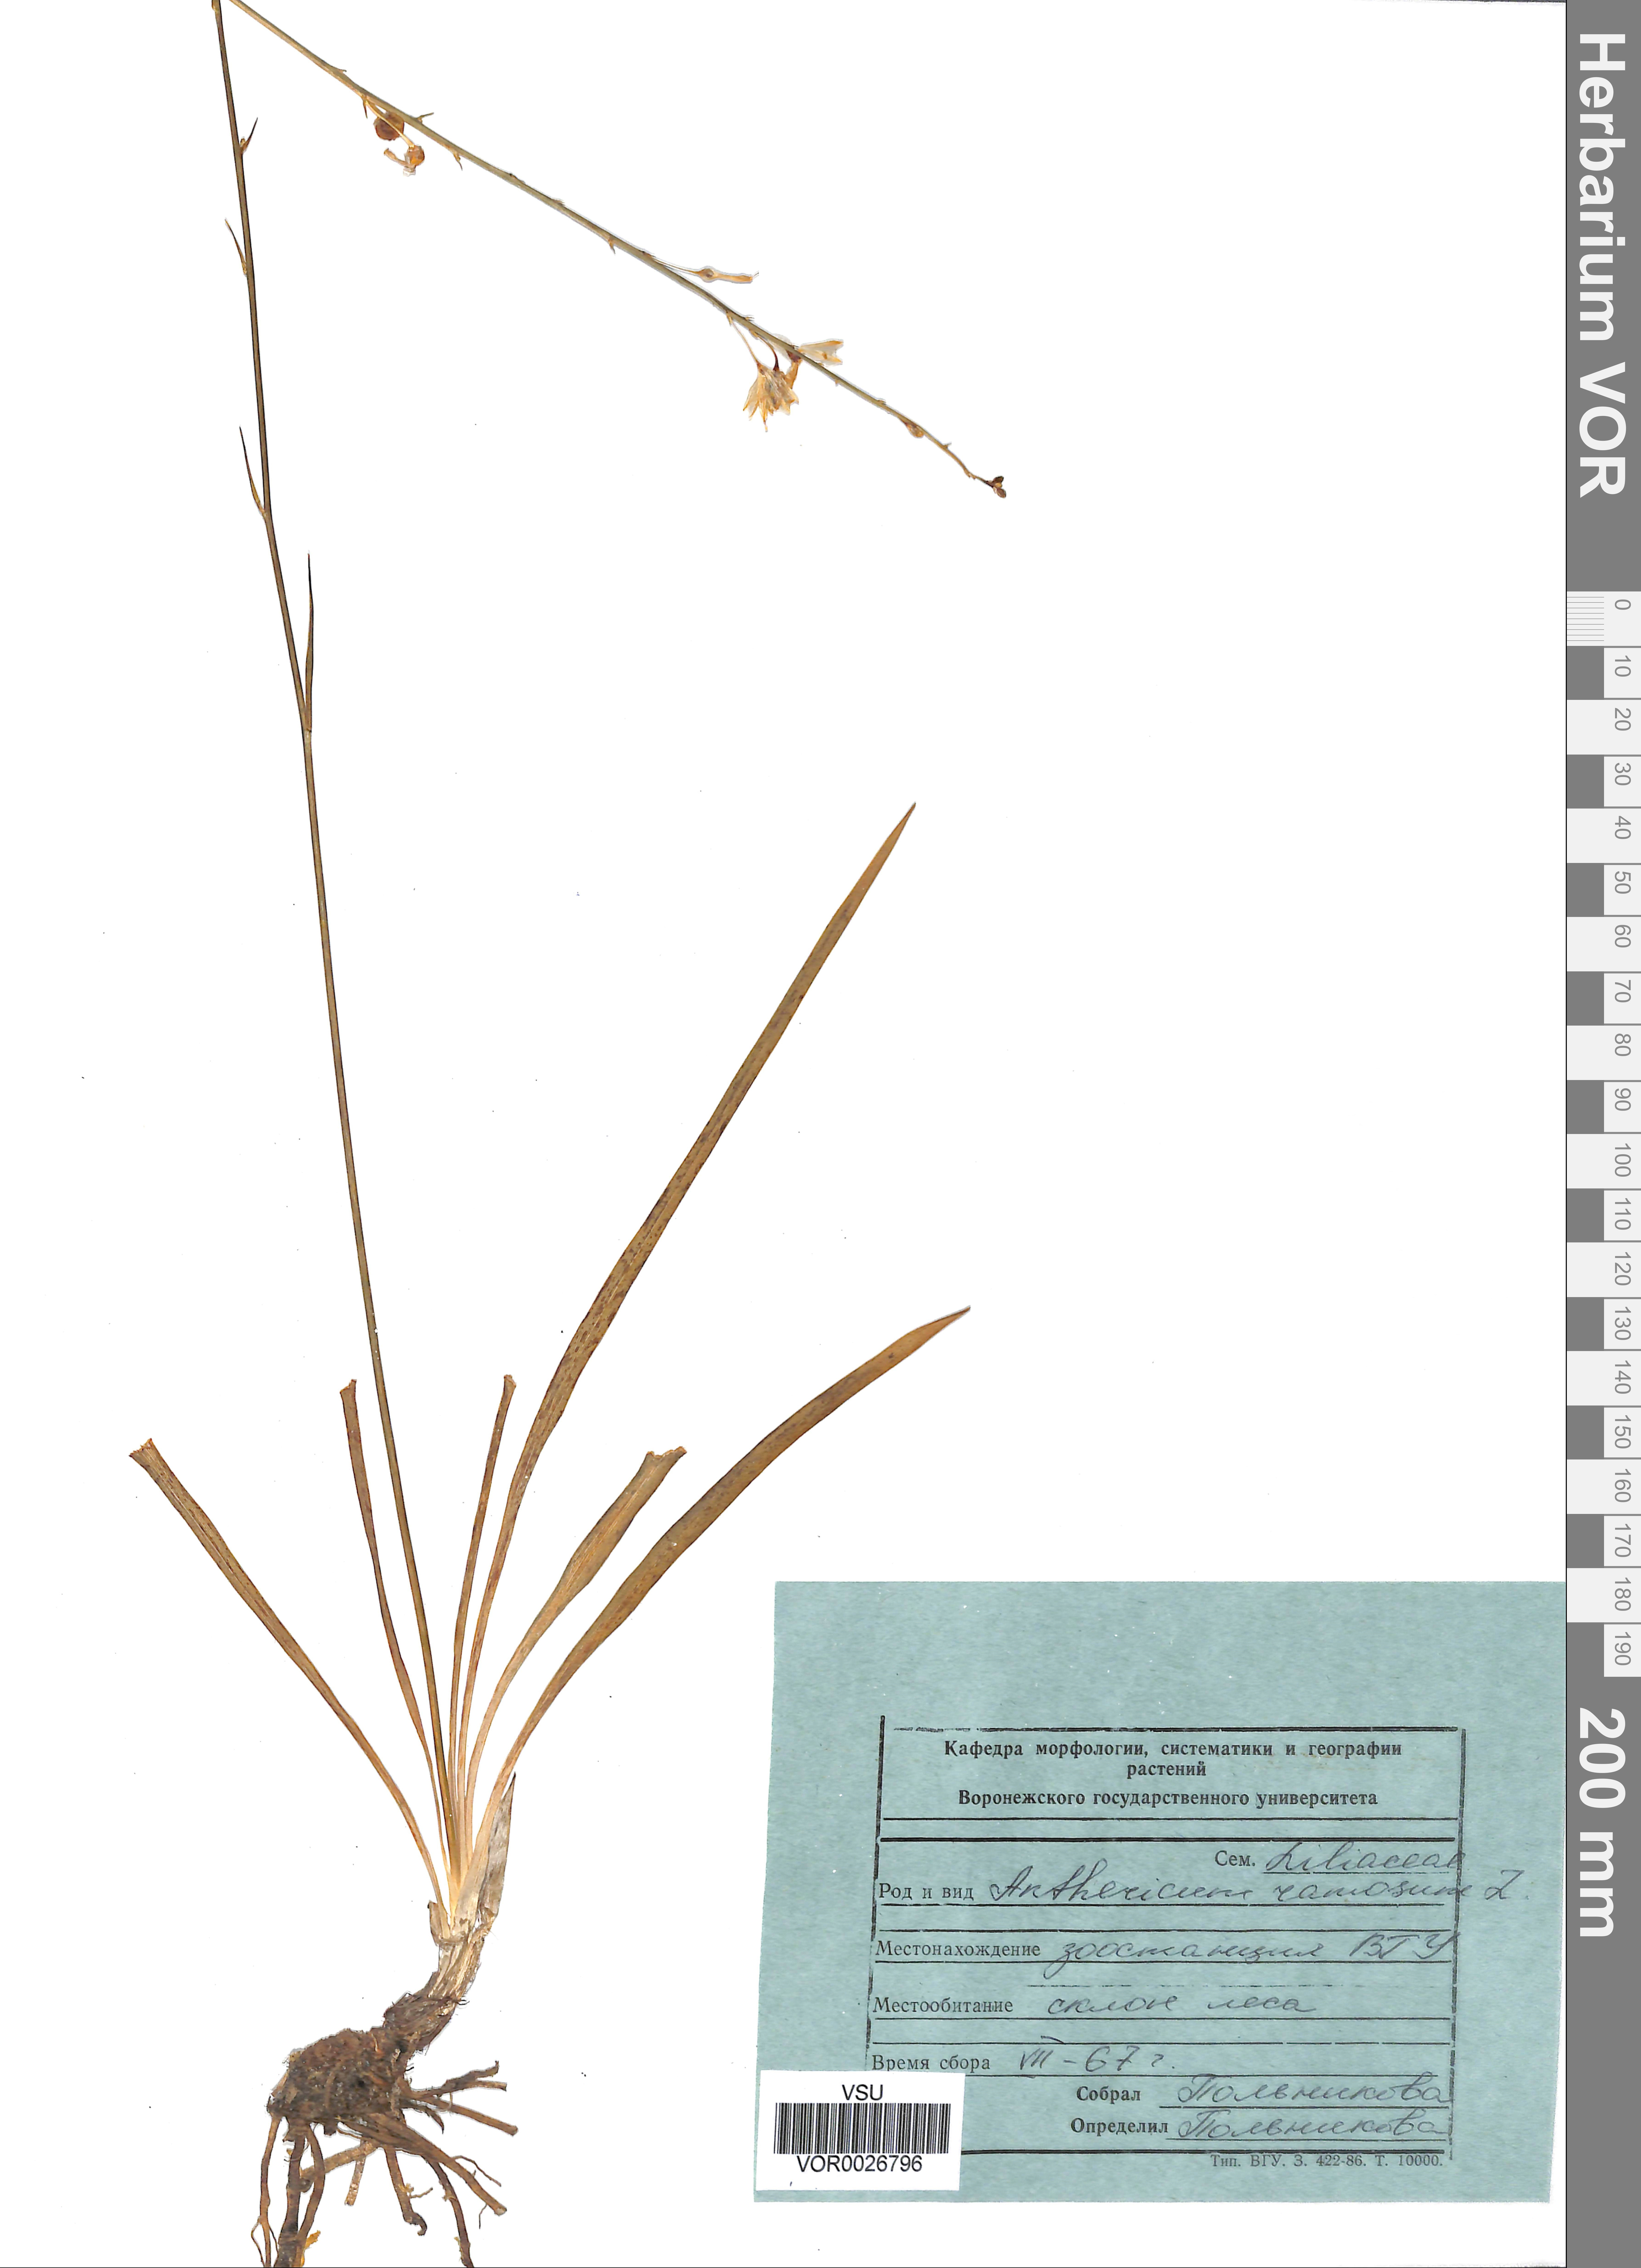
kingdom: Plantae
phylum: Tracheophyta
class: Liliopsida
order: Asparagales
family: Asparagaceae
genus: Anthericum
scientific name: Anthericum ramosum
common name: Branched st. bernard's-lily
